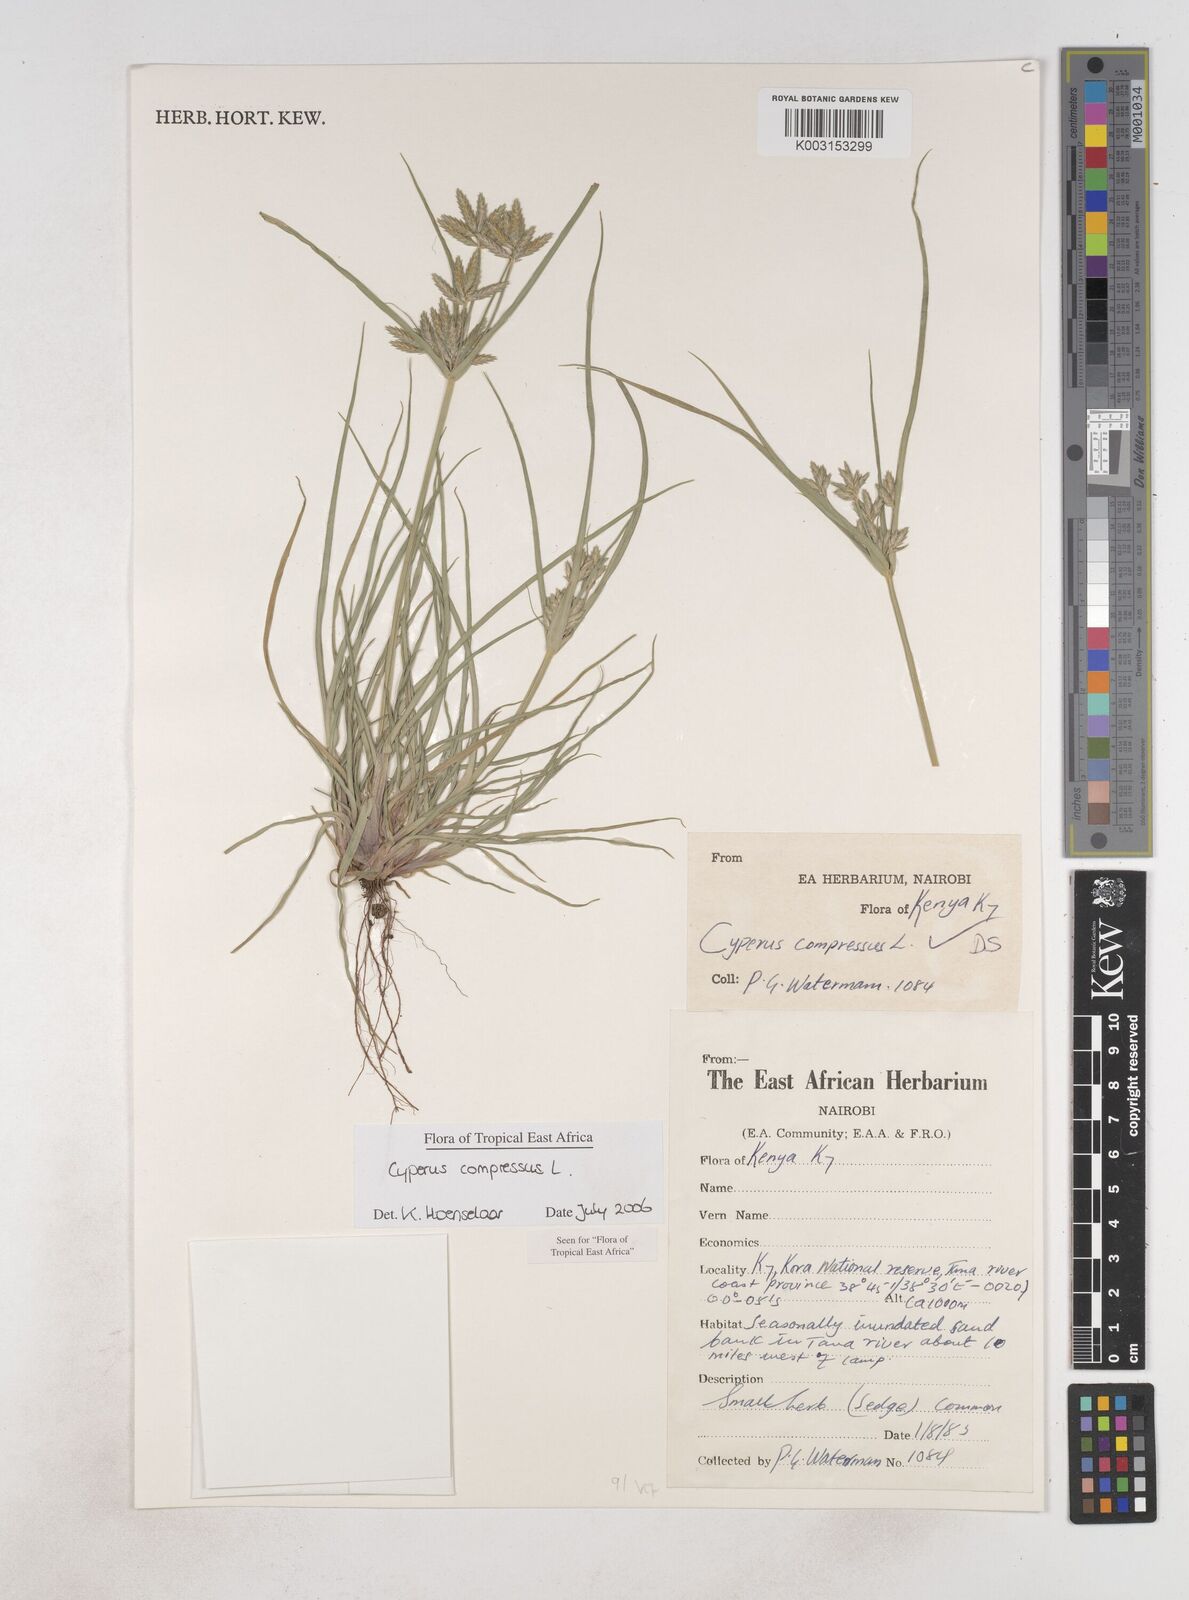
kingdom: Plantae
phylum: Tracheophyta
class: Liliopsida
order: Poales
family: Cyperaceae
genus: Cyperus
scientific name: Cyperus compressus
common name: Poorland flatsedge
